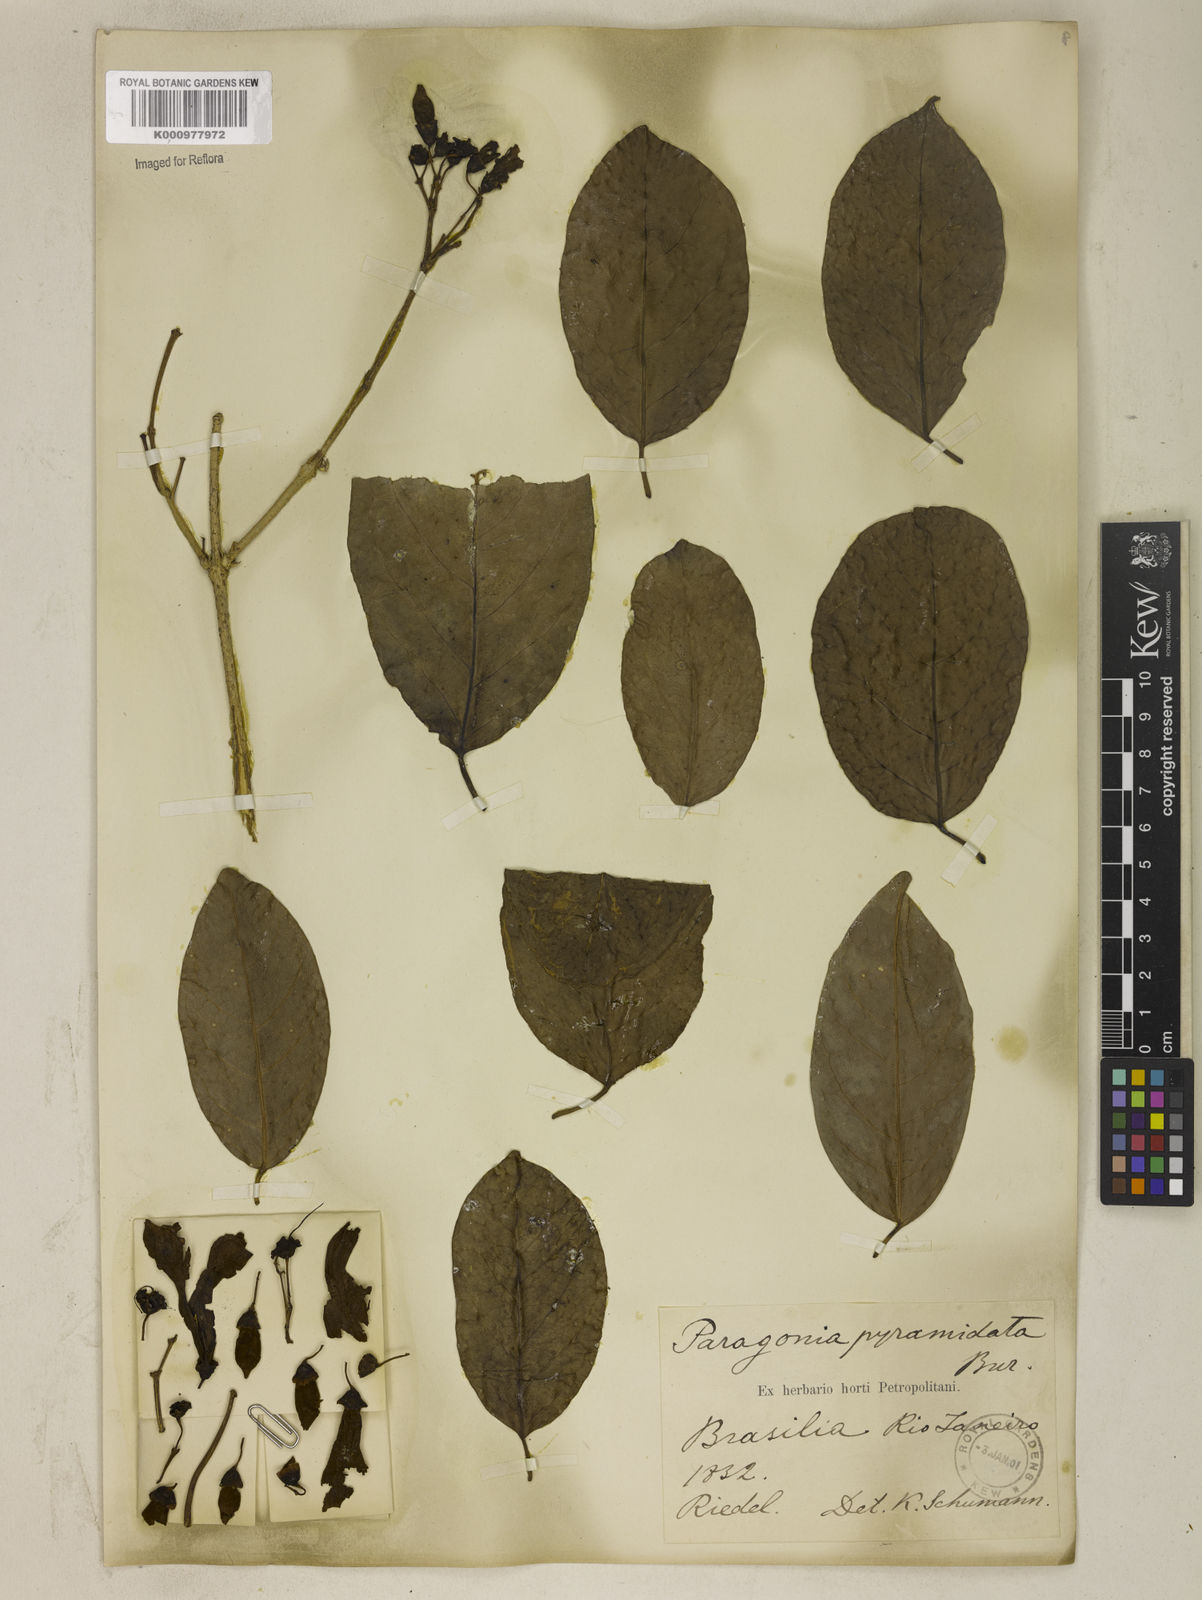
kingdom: Plantae
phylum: Tracheophyta
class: Magnoliopsida
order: Lamiales
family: Bignoniaceae
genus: Tanaecium
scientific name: Tanaecium pyramidatum
